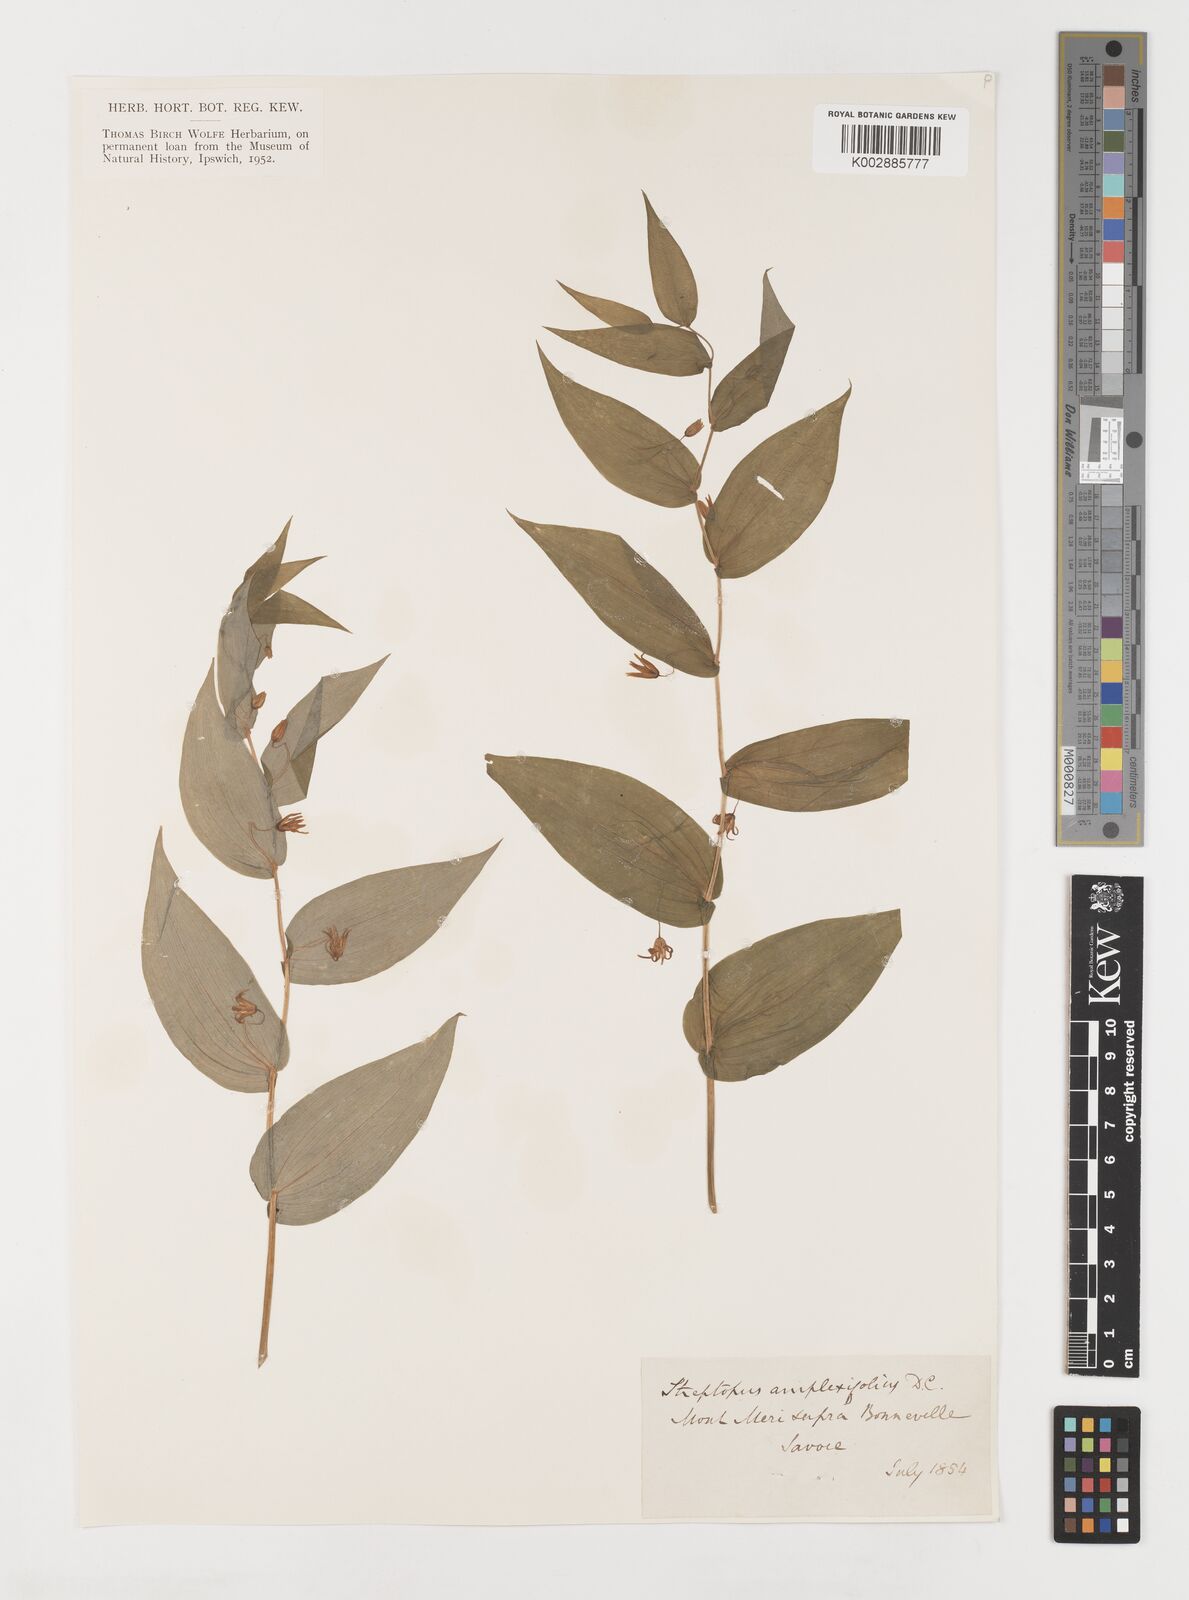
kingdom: Plantae
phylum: Tracheophyta
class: Liliopsida
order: Liliales
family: Liliaceae
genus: Streptopus
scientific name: Streptopus amplexifolius
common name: Clasp twisted stalk
